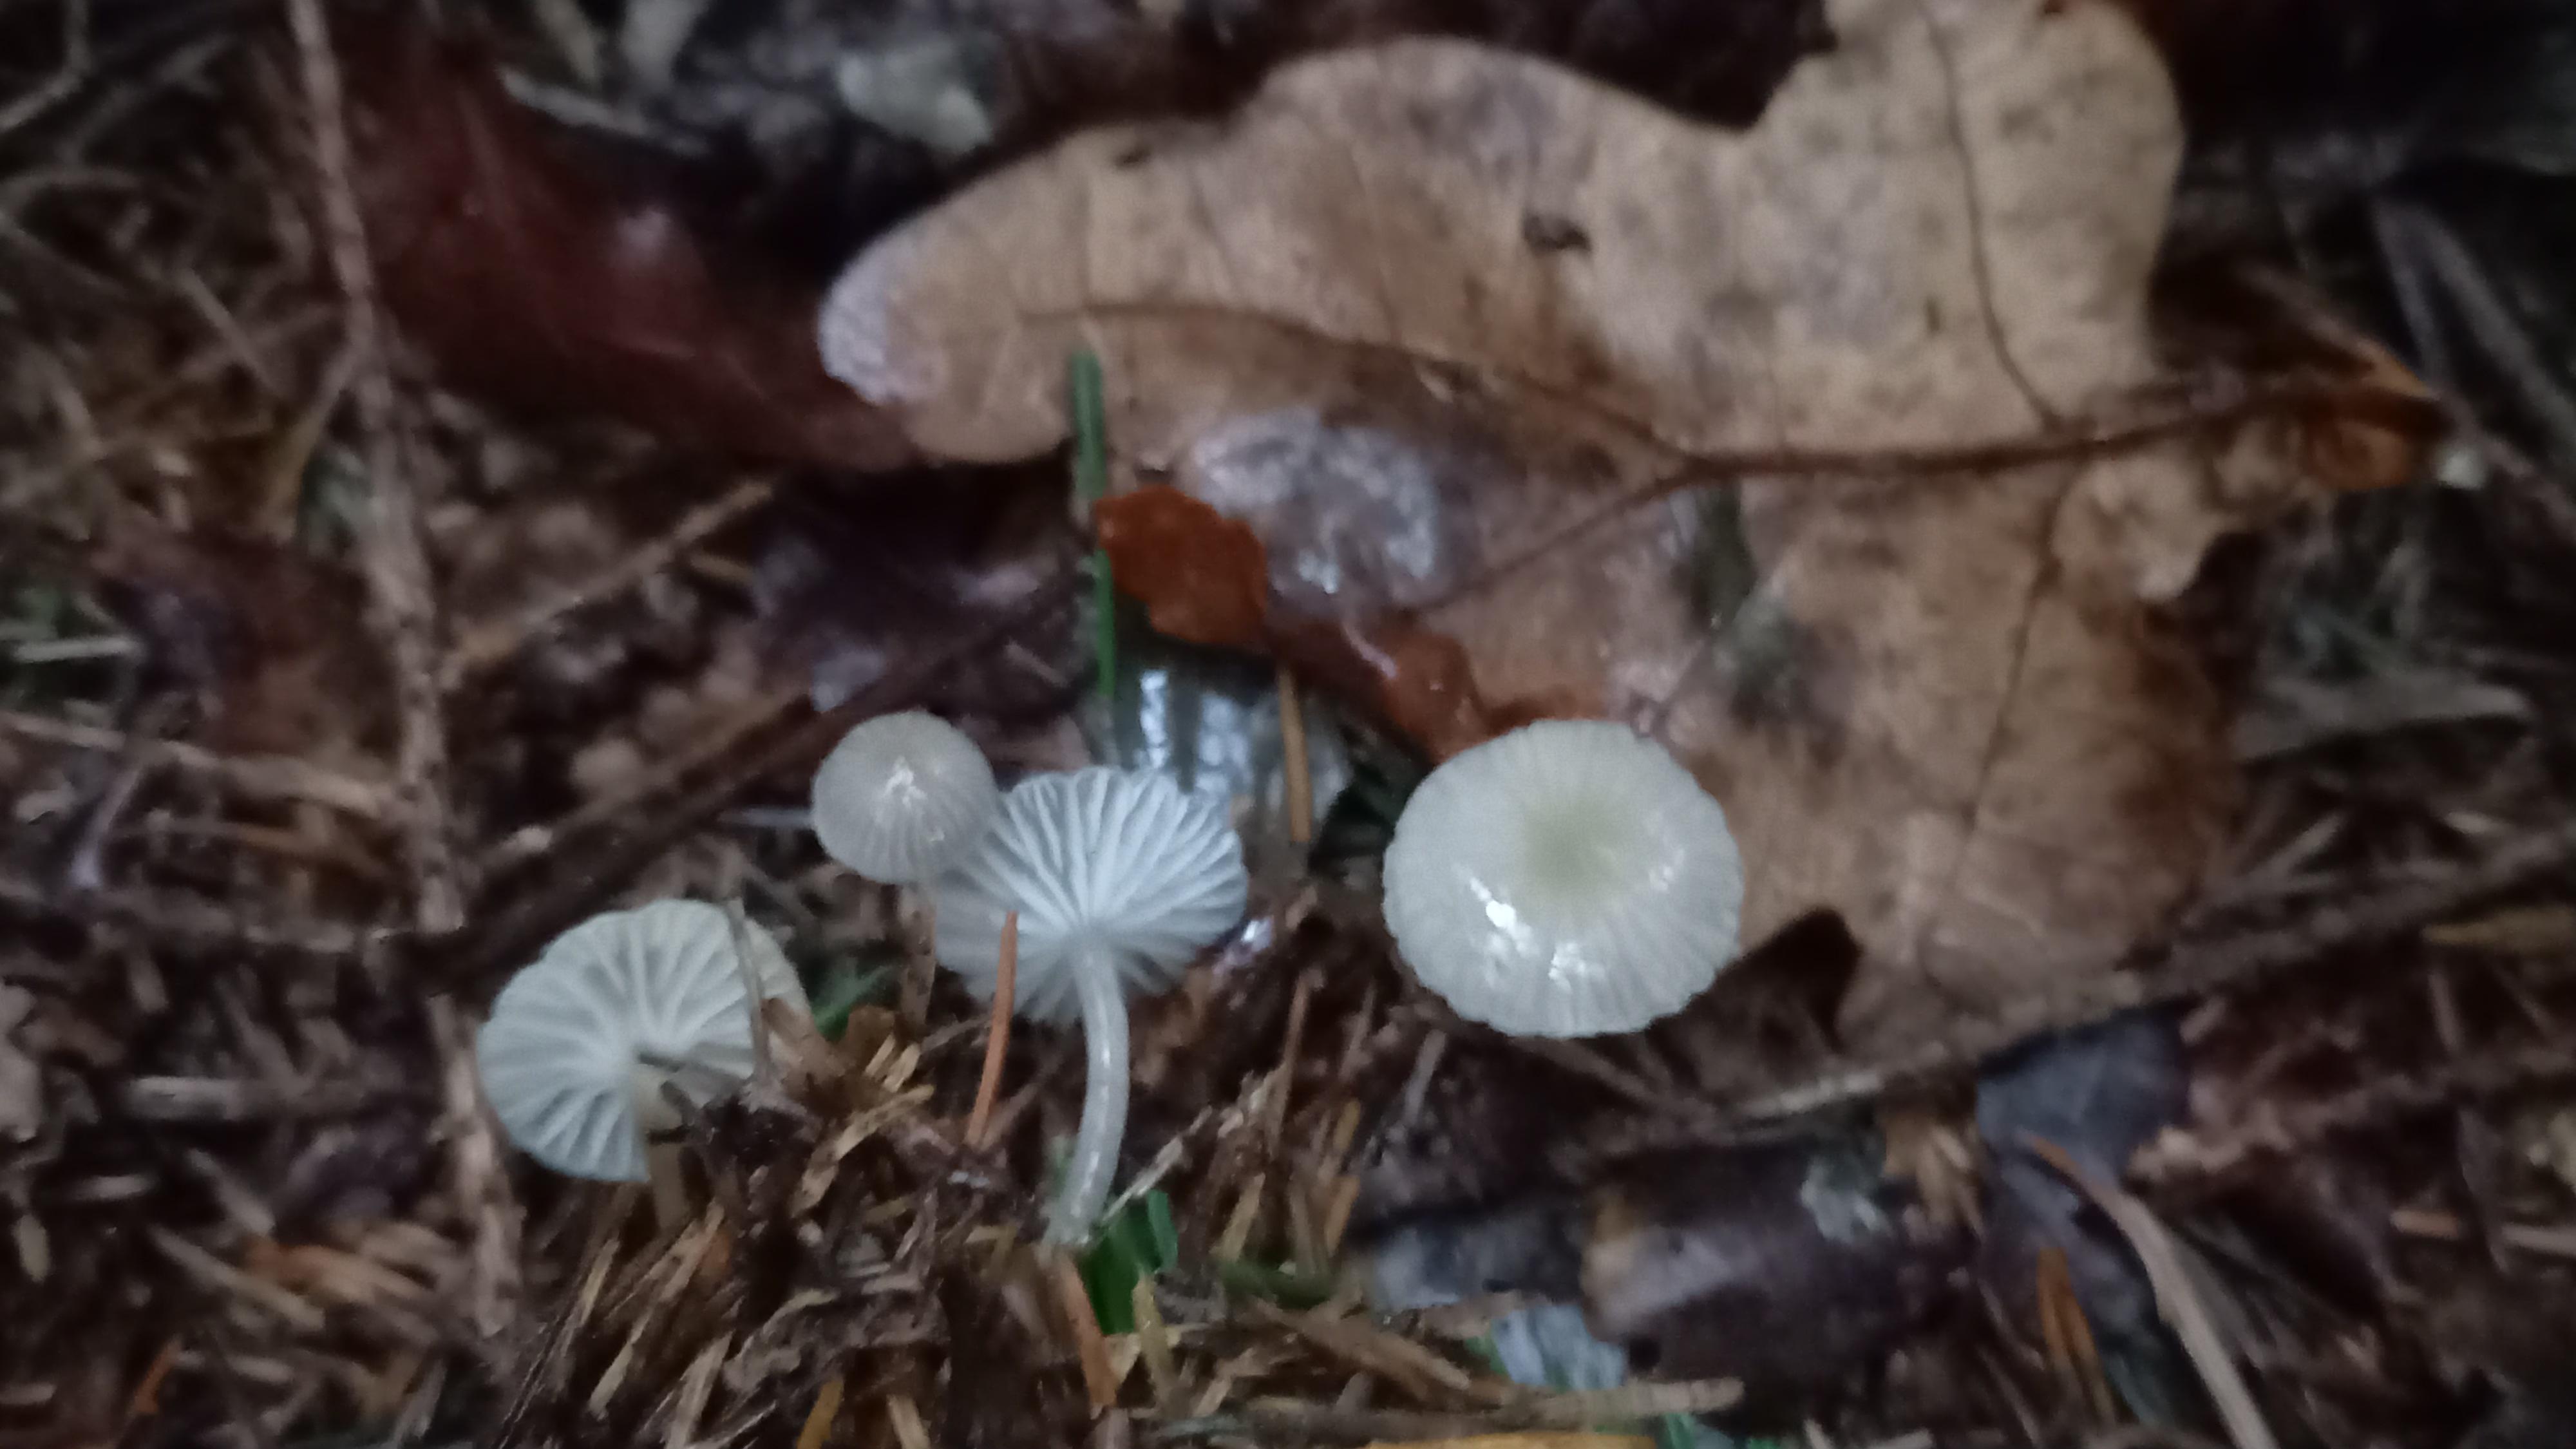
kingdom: Fungi
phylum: Basidiomycota
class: Agaricomycetes
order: Agaricales
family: Mycenaceae
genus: Mycena
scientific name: Mycena vulgaris
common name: klæbrig huesvamp
